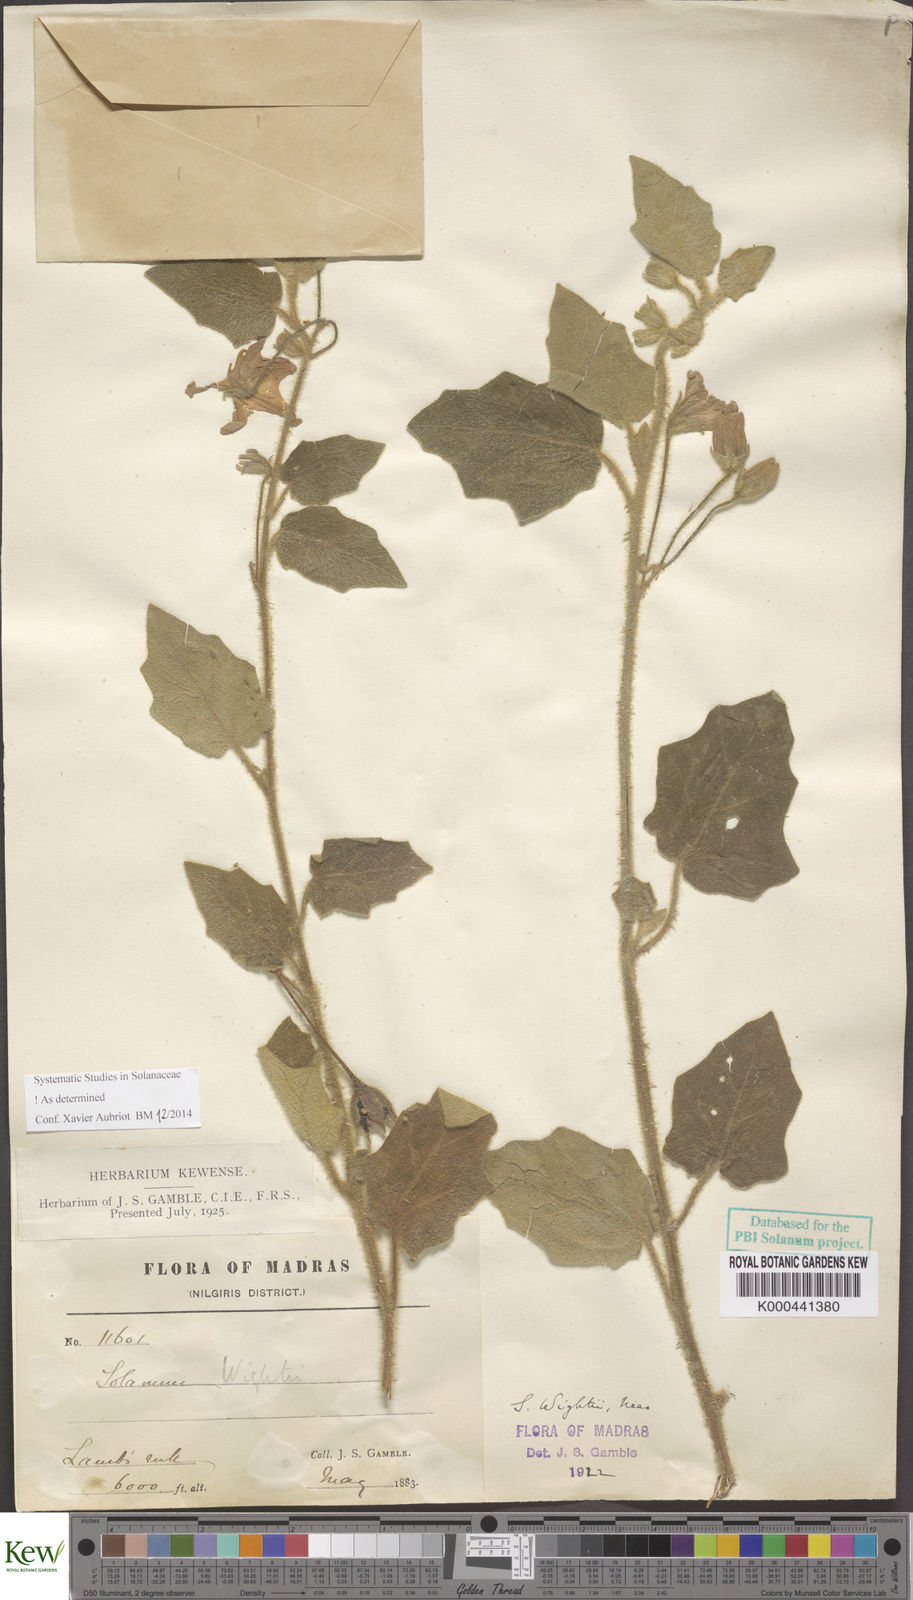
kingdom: Plantae
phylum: Tracheophyta
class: Magnoliopsida
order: Solanales
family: Solanaceae
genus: Solanum
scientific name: Solanum wightii
